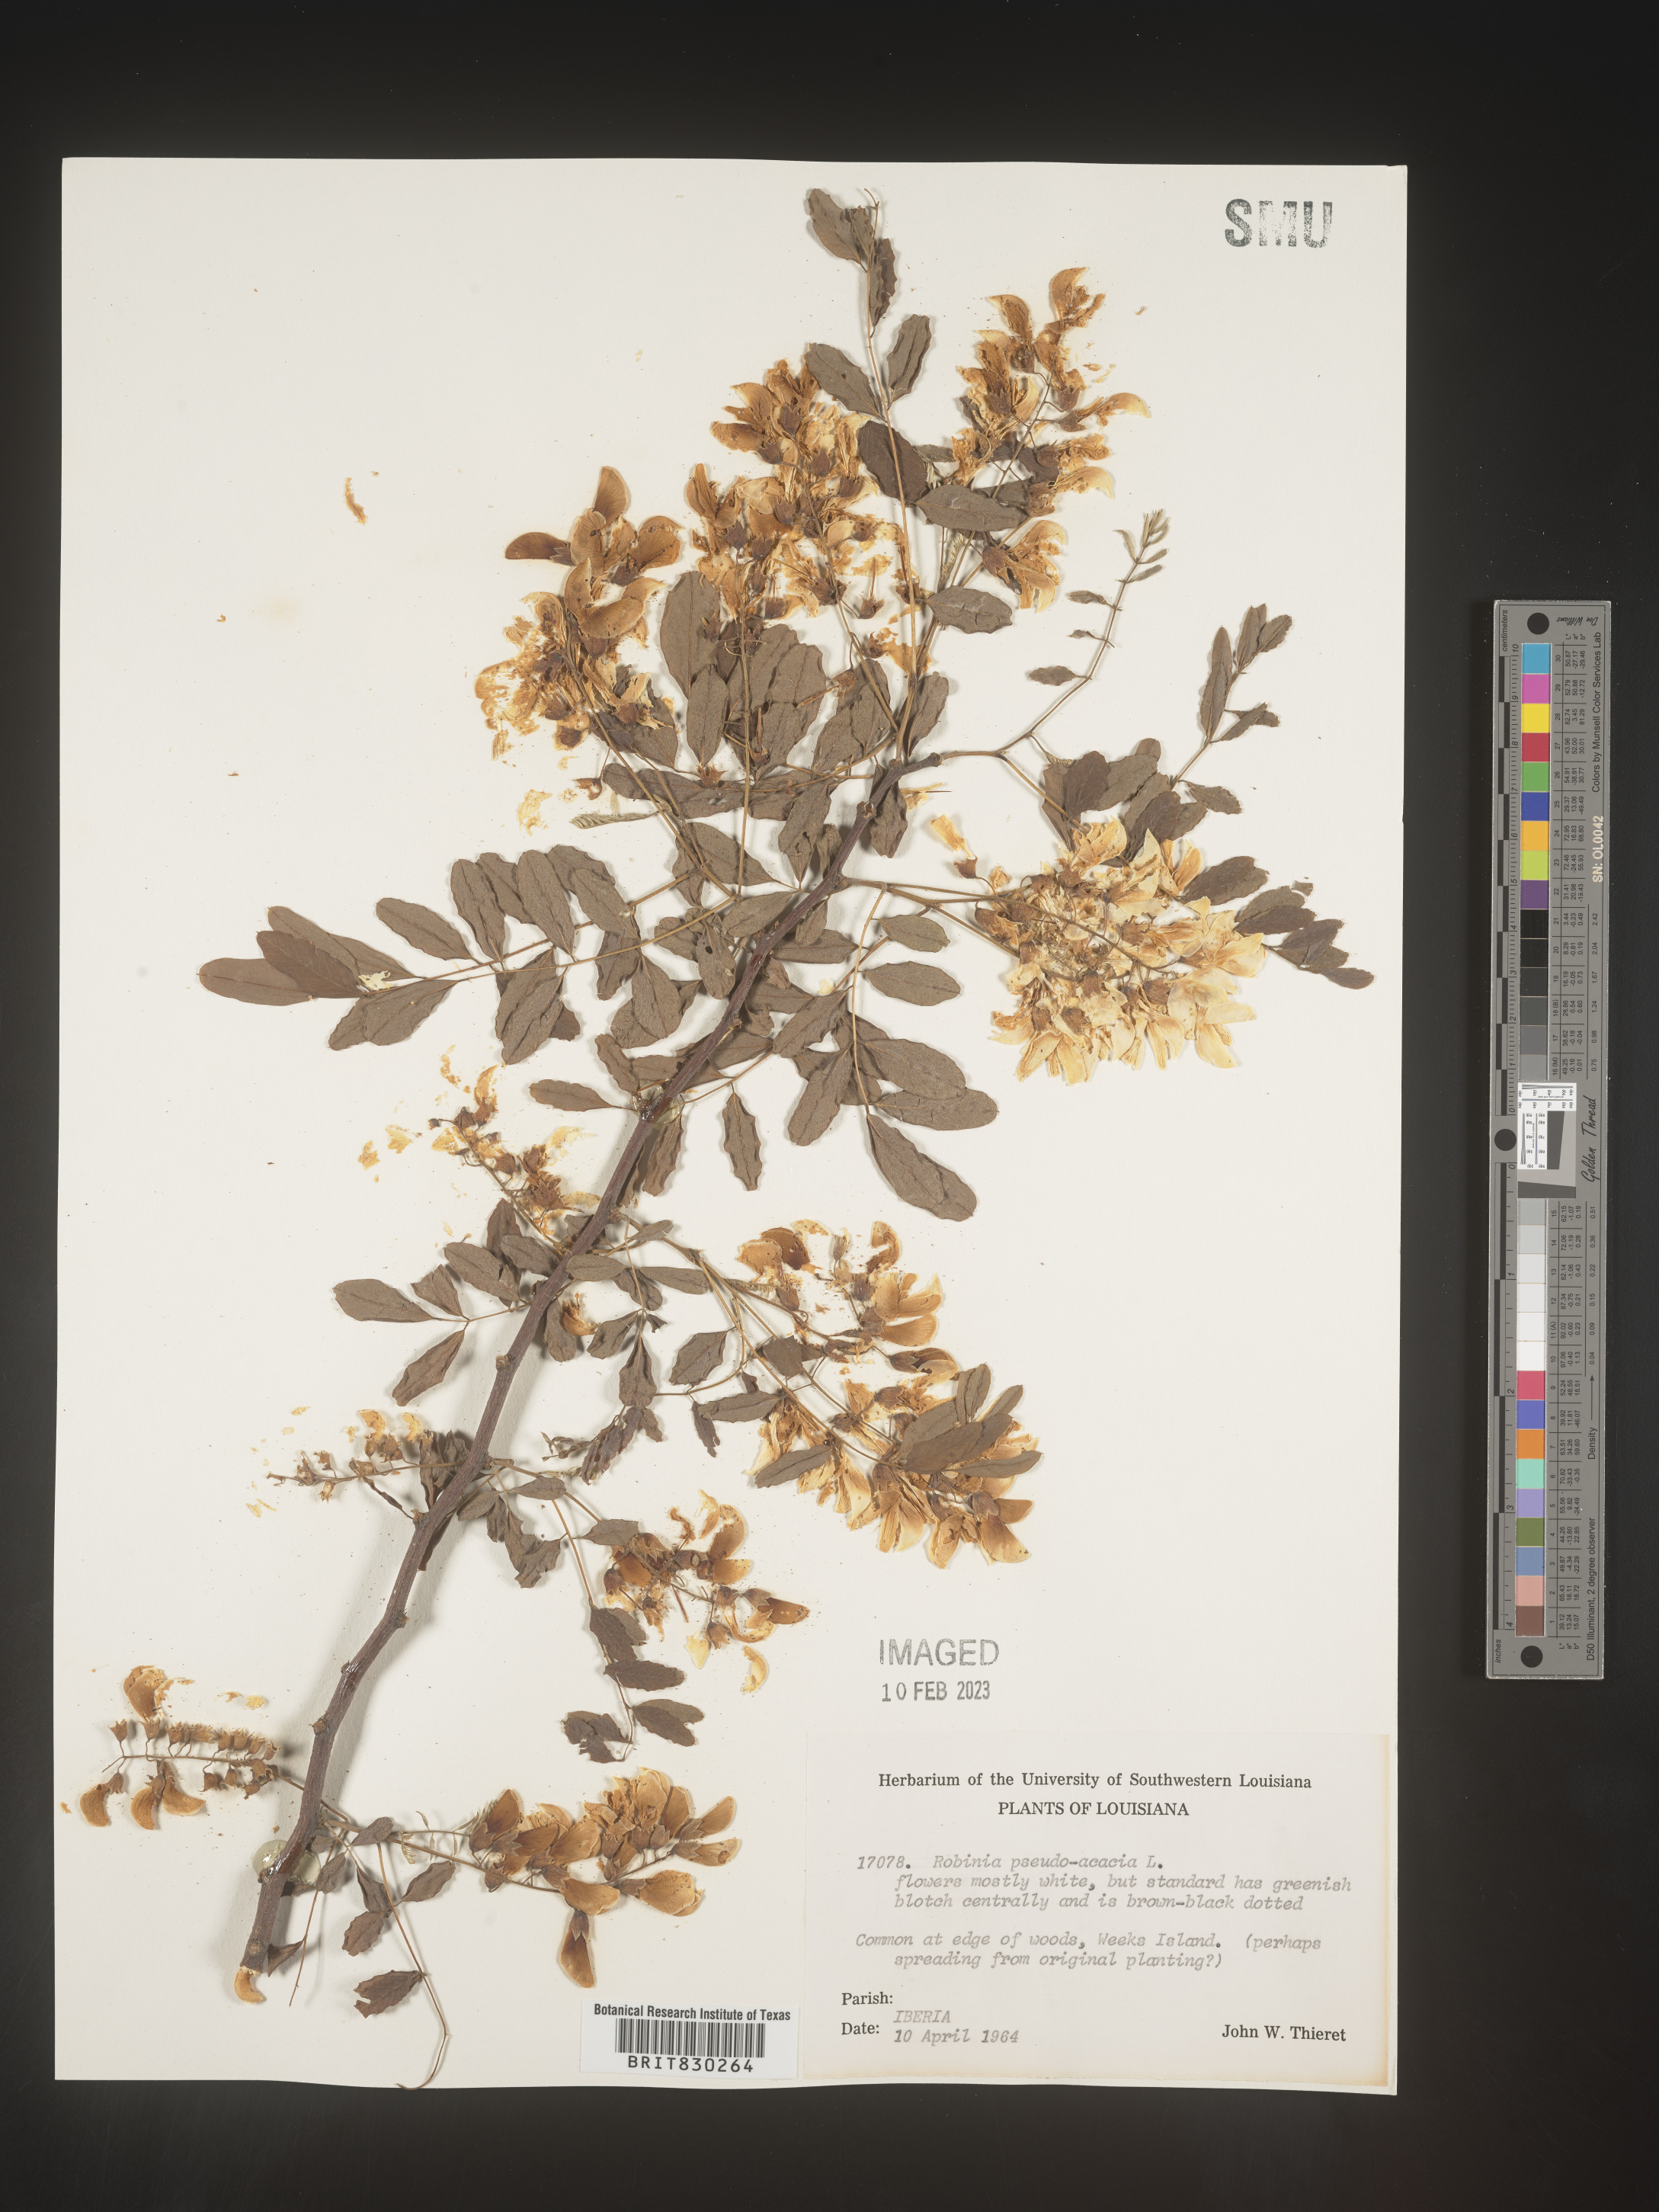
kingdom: Plantae
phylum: Tracheophyta
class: Magnoliopsida
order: Fabales
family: Fabaceae
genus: Robinia
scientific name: Robinia pseudoacacia
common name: Black locust
